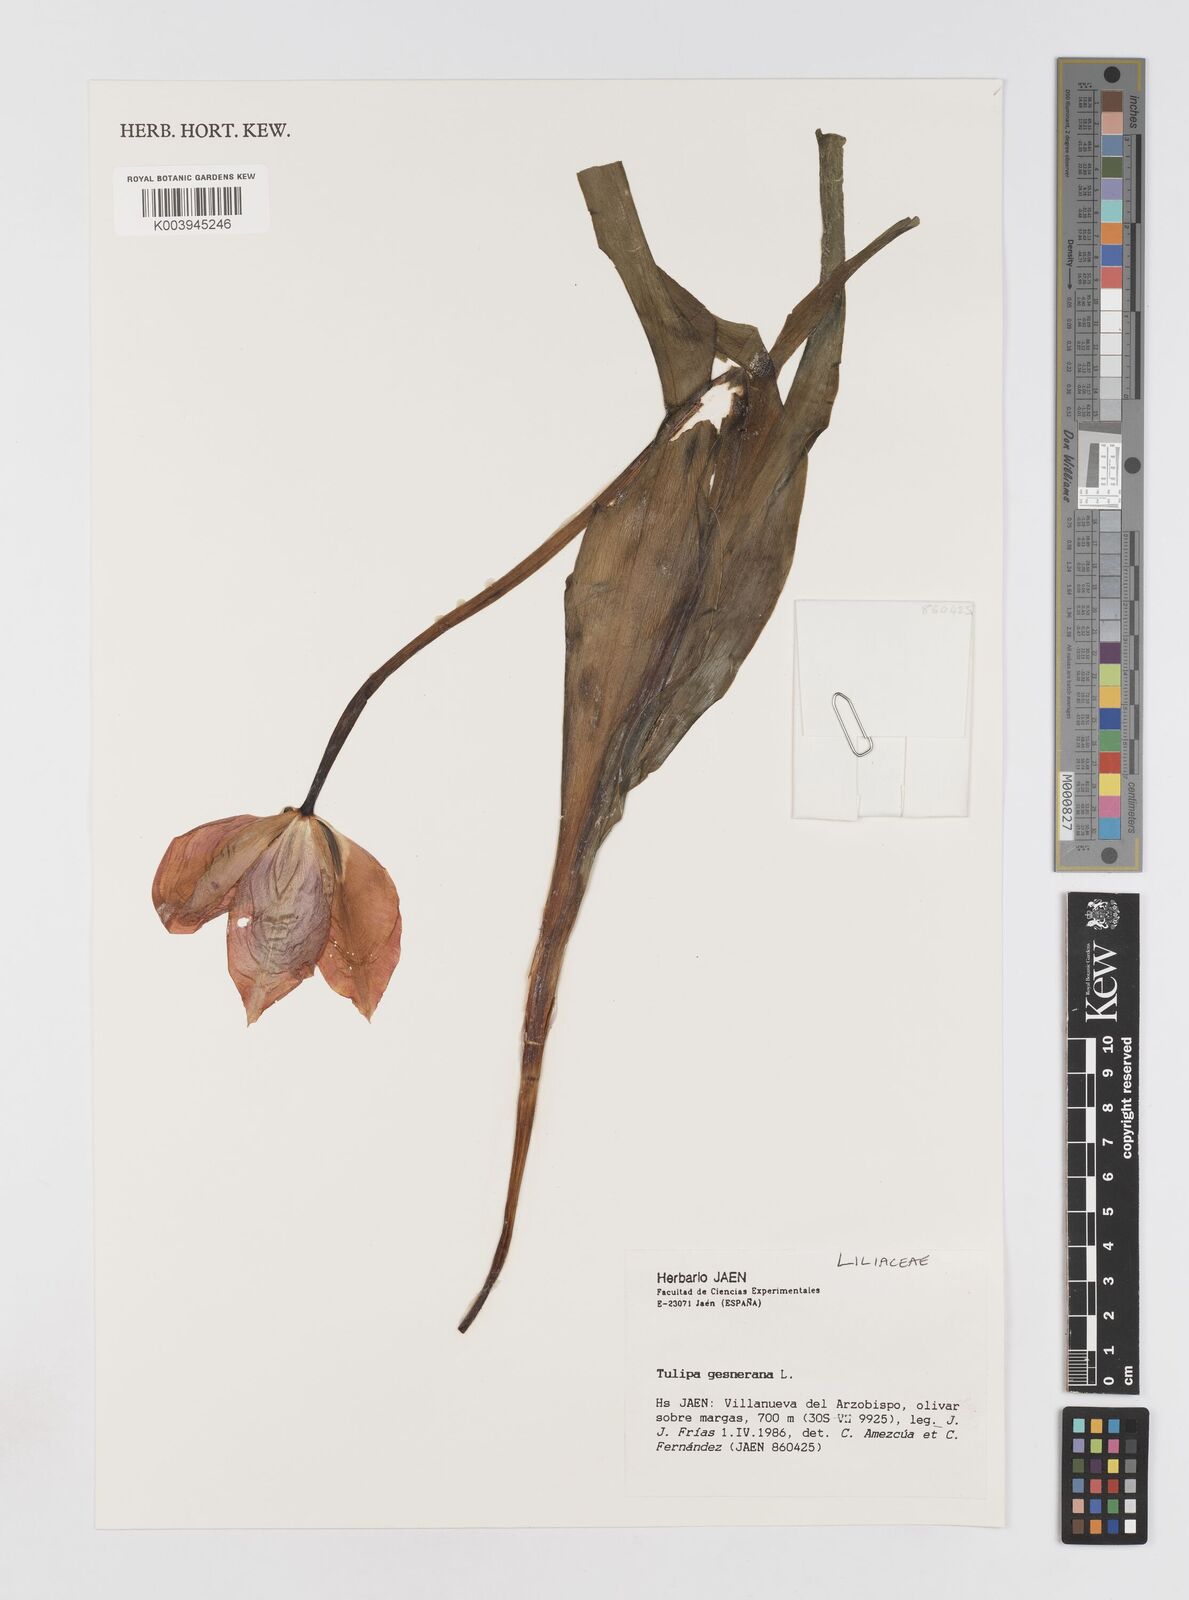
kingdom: Plantae
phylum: Tracheophyta
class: Liliopsida
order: Liliales
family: Liliaceae
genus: Tulipa
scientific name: Tulipa gesneriana
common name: Garden tulip
